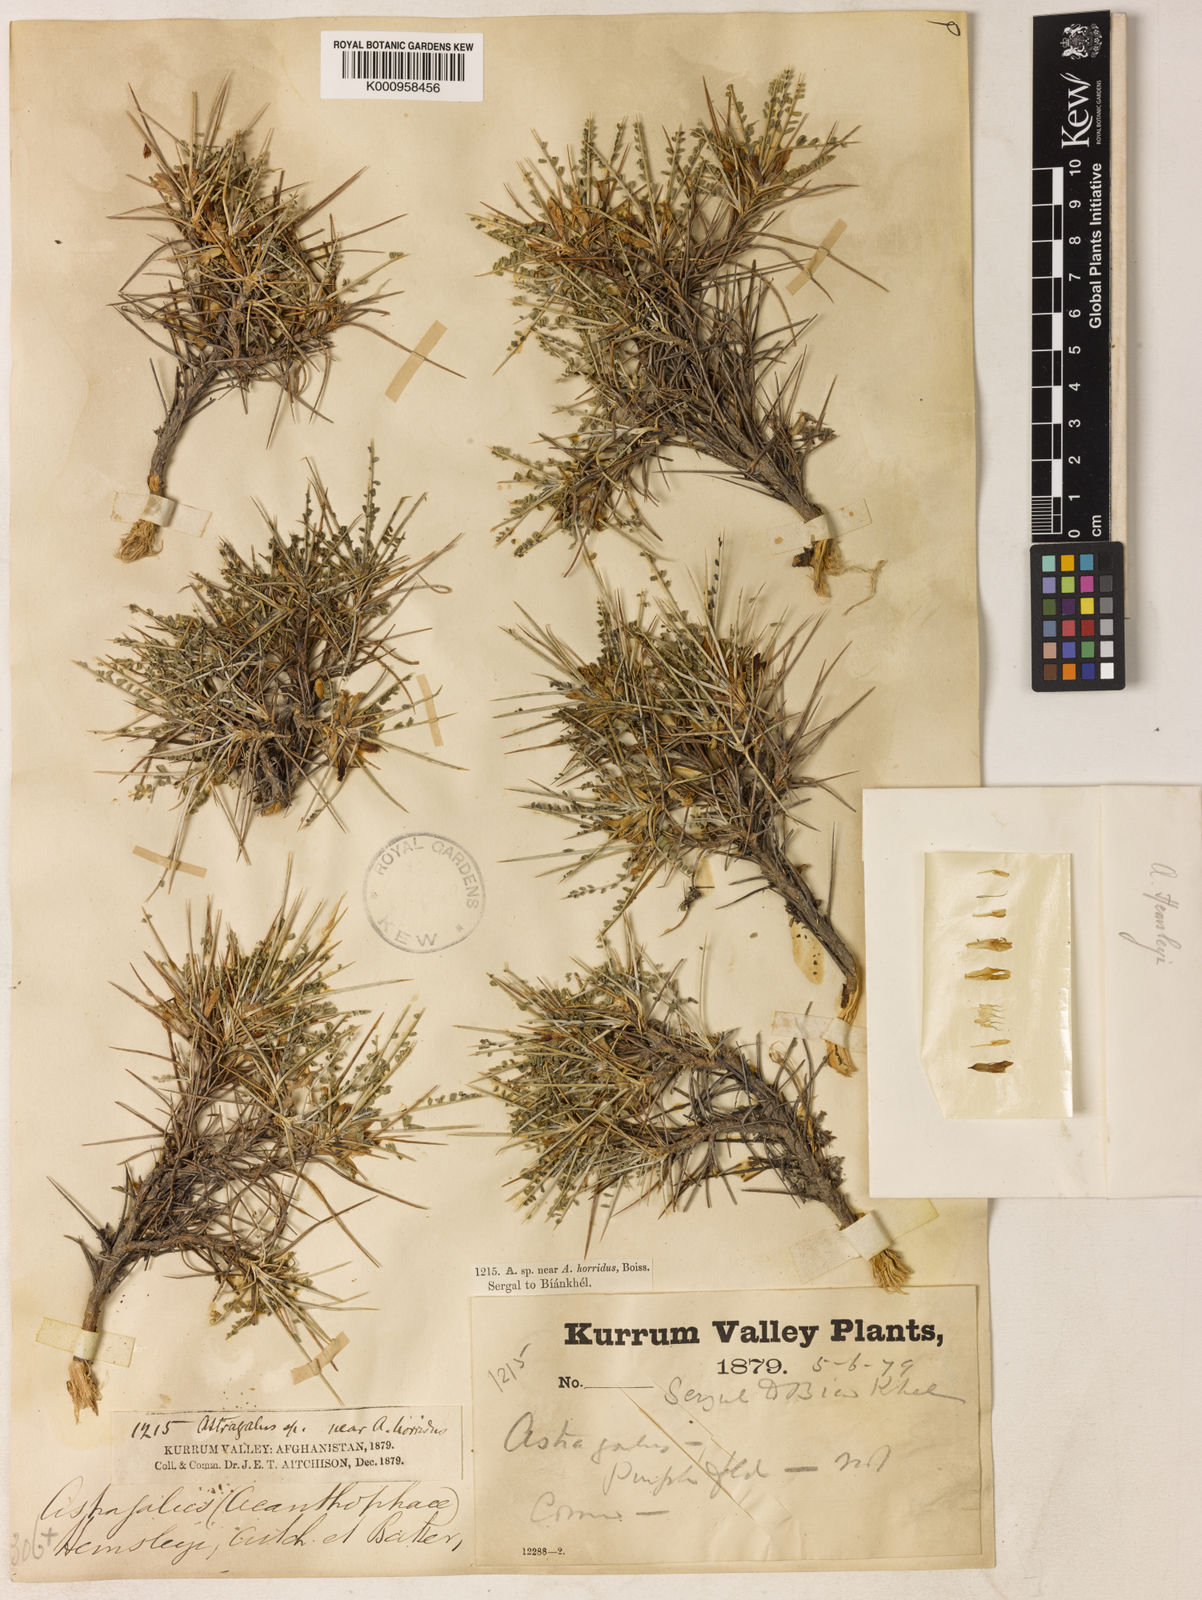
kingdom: Plantae
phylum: Tracheophyta
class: Magnoliopsida
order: Fabales
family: Fabaceae
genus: Astragalus
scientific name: Astragalus hemsleyi
